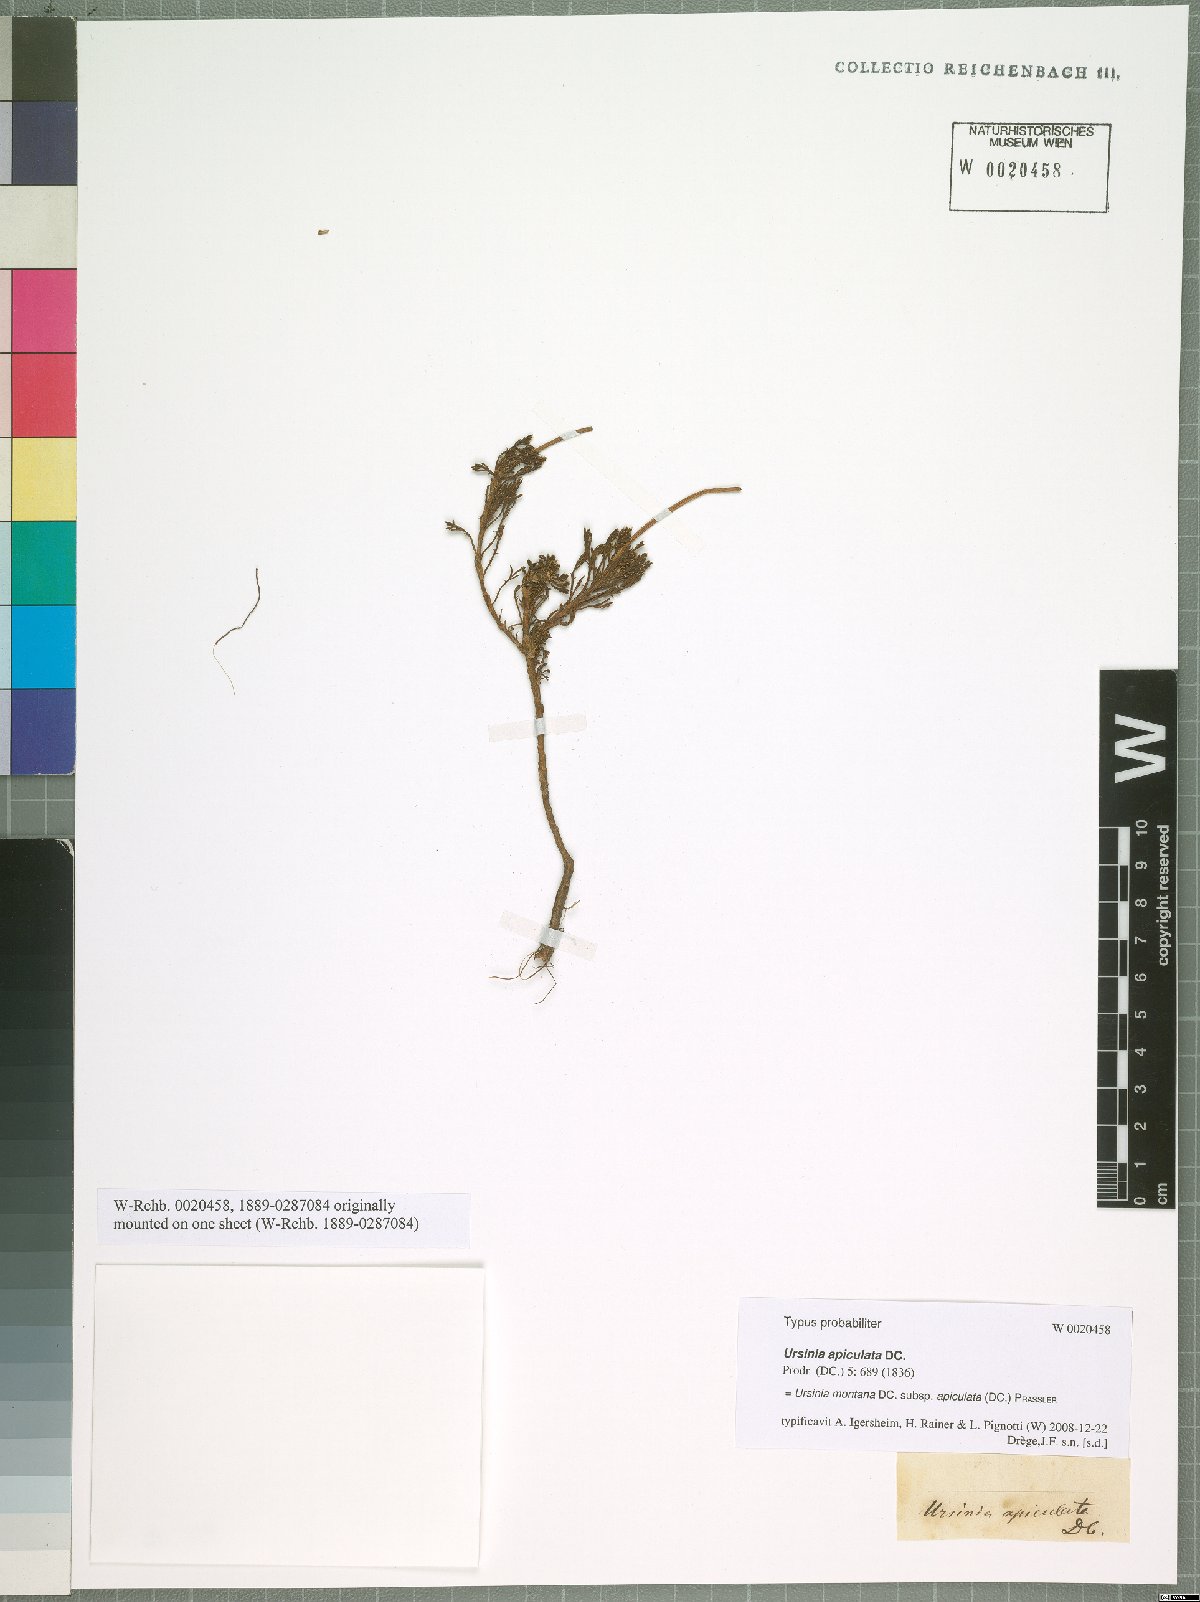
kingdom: Plantae
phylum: Tracheophyta
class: Magnoliopsida
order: Asterales
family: Asteraceae
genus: Ursinia
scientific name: Ursinia montana
